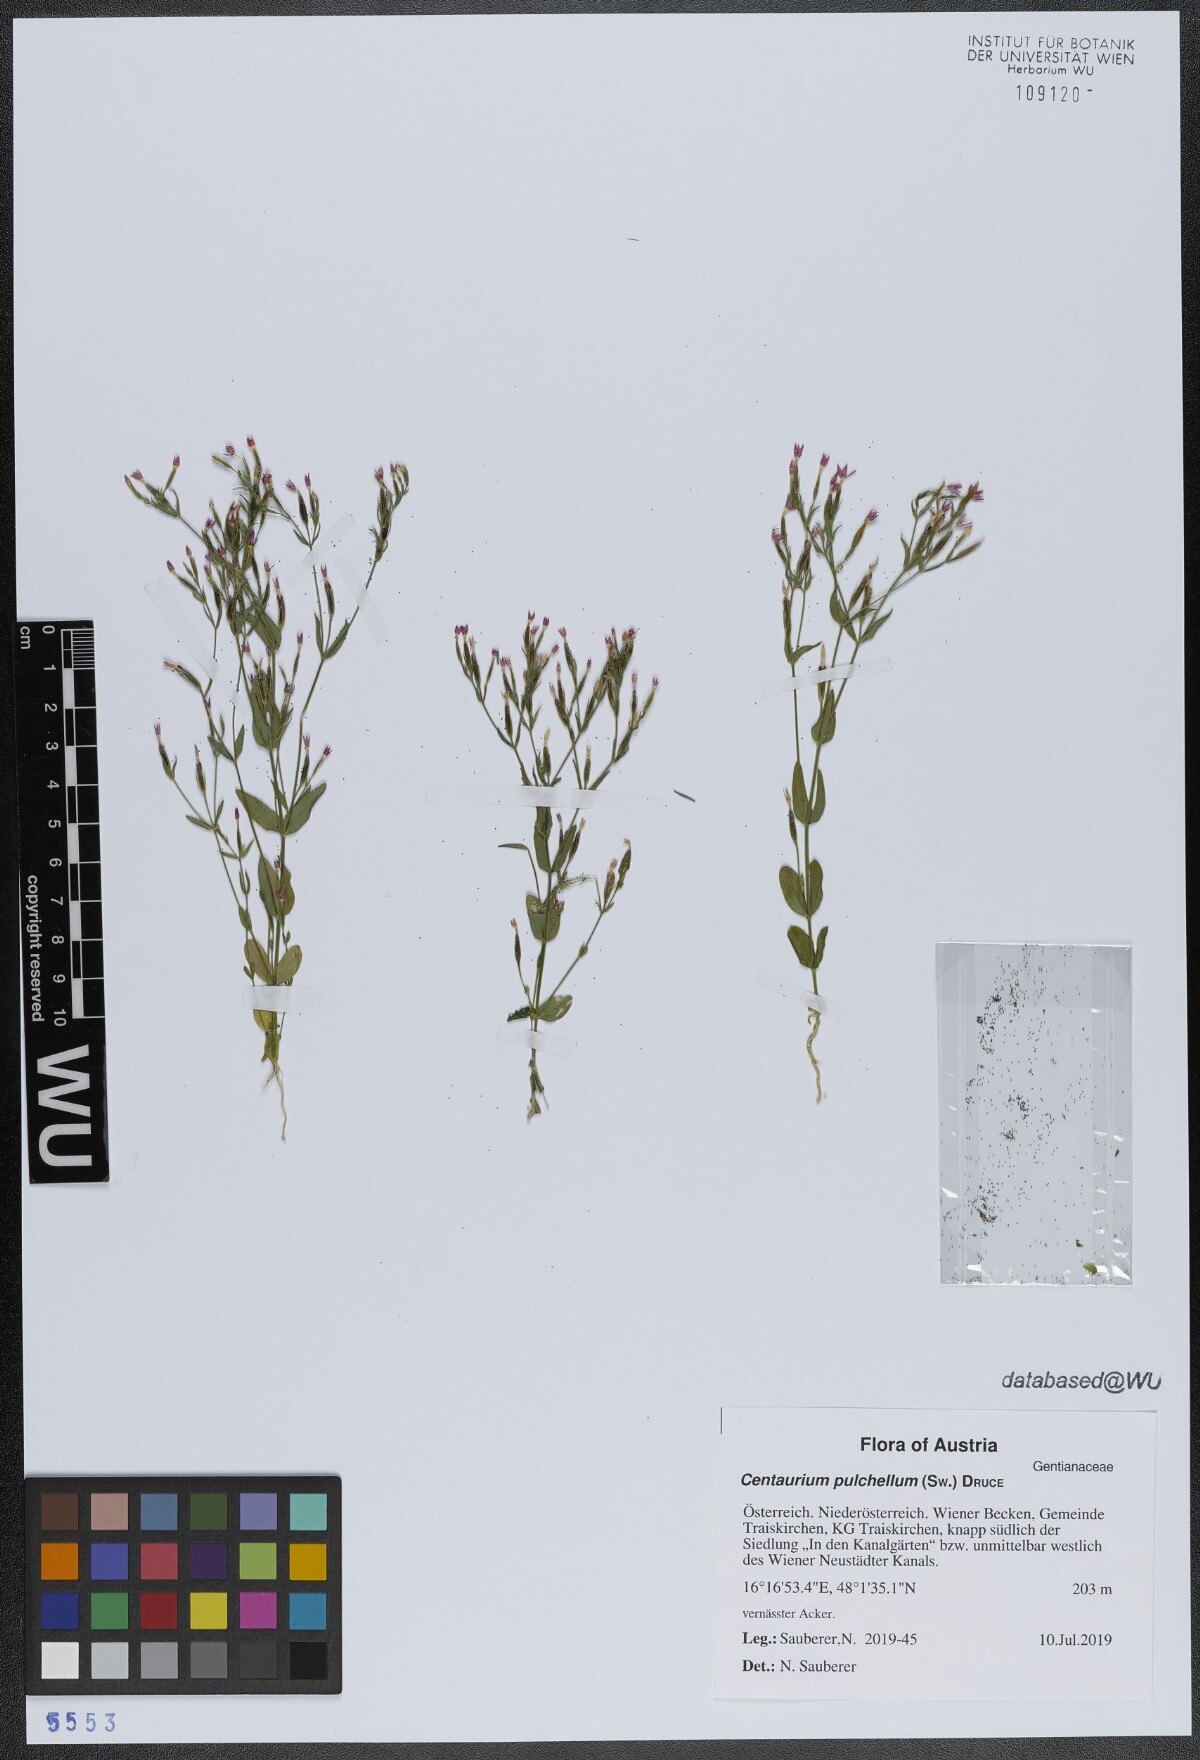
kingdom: Plantae
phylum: Tracheophyta
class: Magnoliopsida
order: Gentianales
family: Gentianaceae
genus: Centaurium
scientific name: Centaurium pulchellum
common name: Lesser centaury
